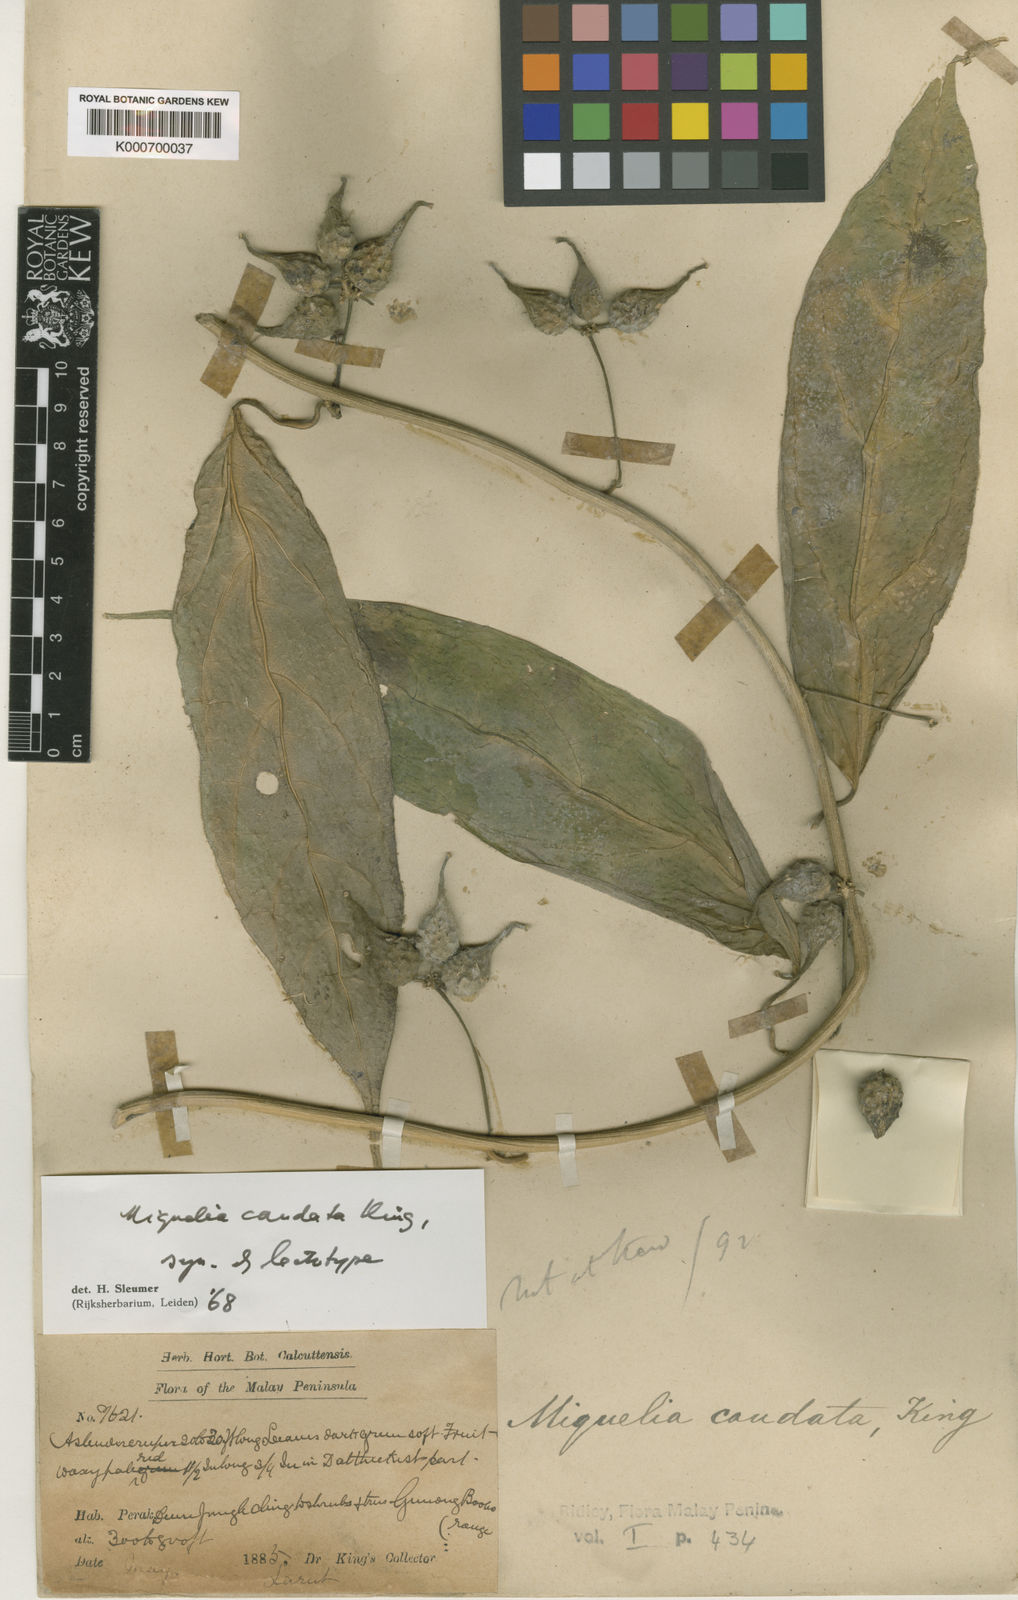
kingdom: Plantae
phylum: Tracheophyta
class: Magnoliopsida
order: Icacinales
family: Icacinaceae
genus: Miquelia
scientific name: Miquelia caudata
